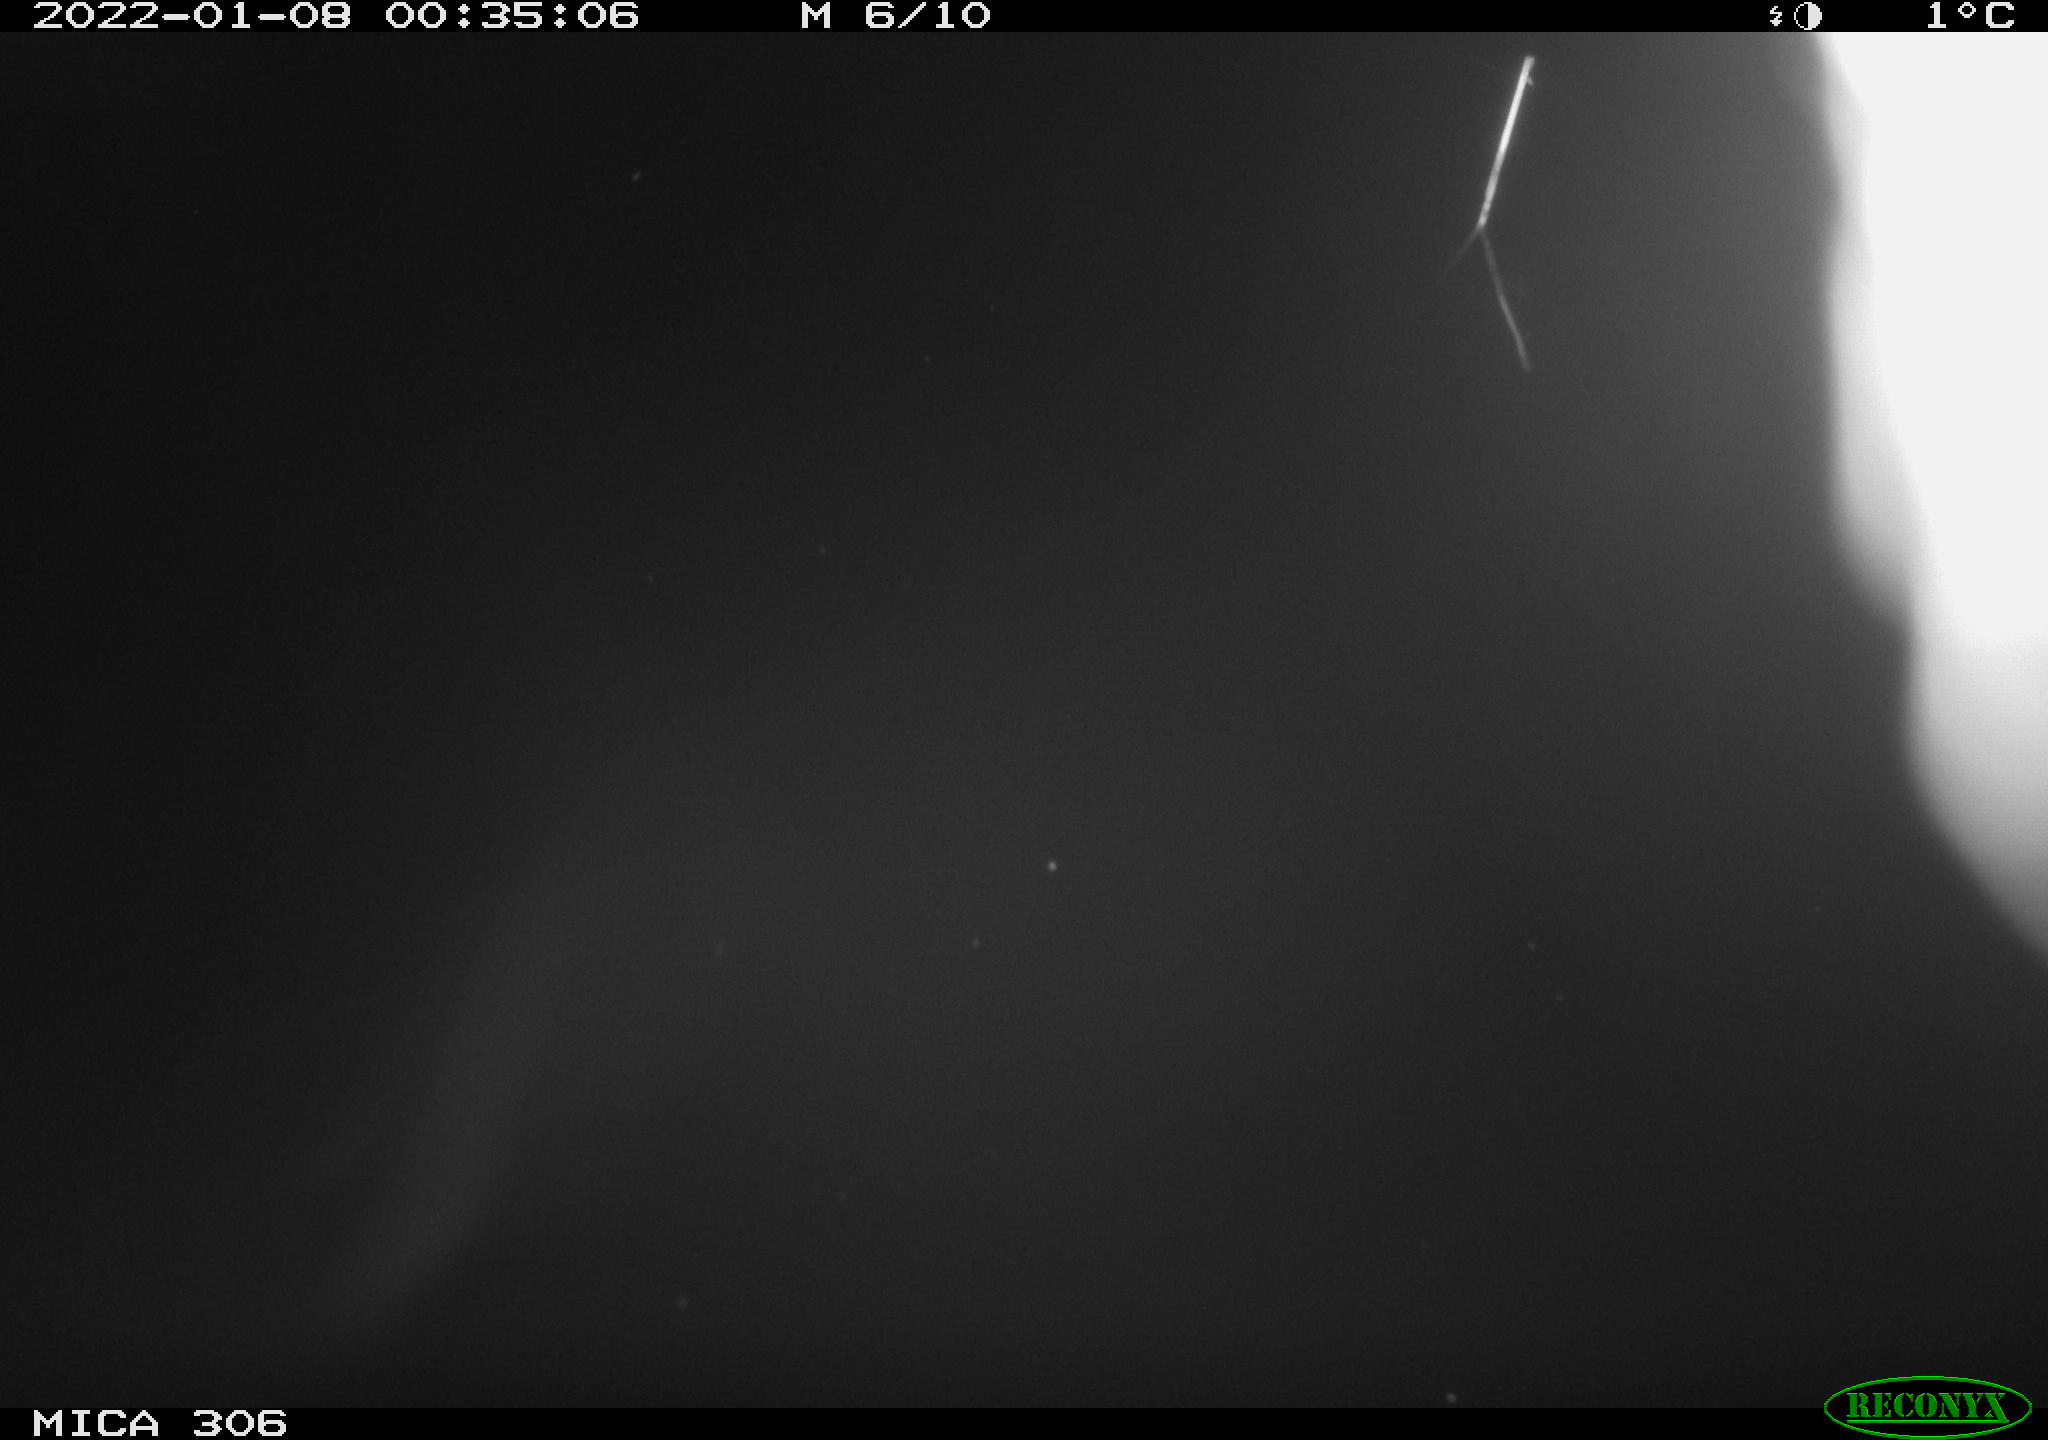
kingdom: Animalia
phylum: Chordata
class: Mammalia
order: Rodentia
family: Cricetidae
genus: Ondatra
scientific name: Ondatra zibethicus
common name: Muskrat
